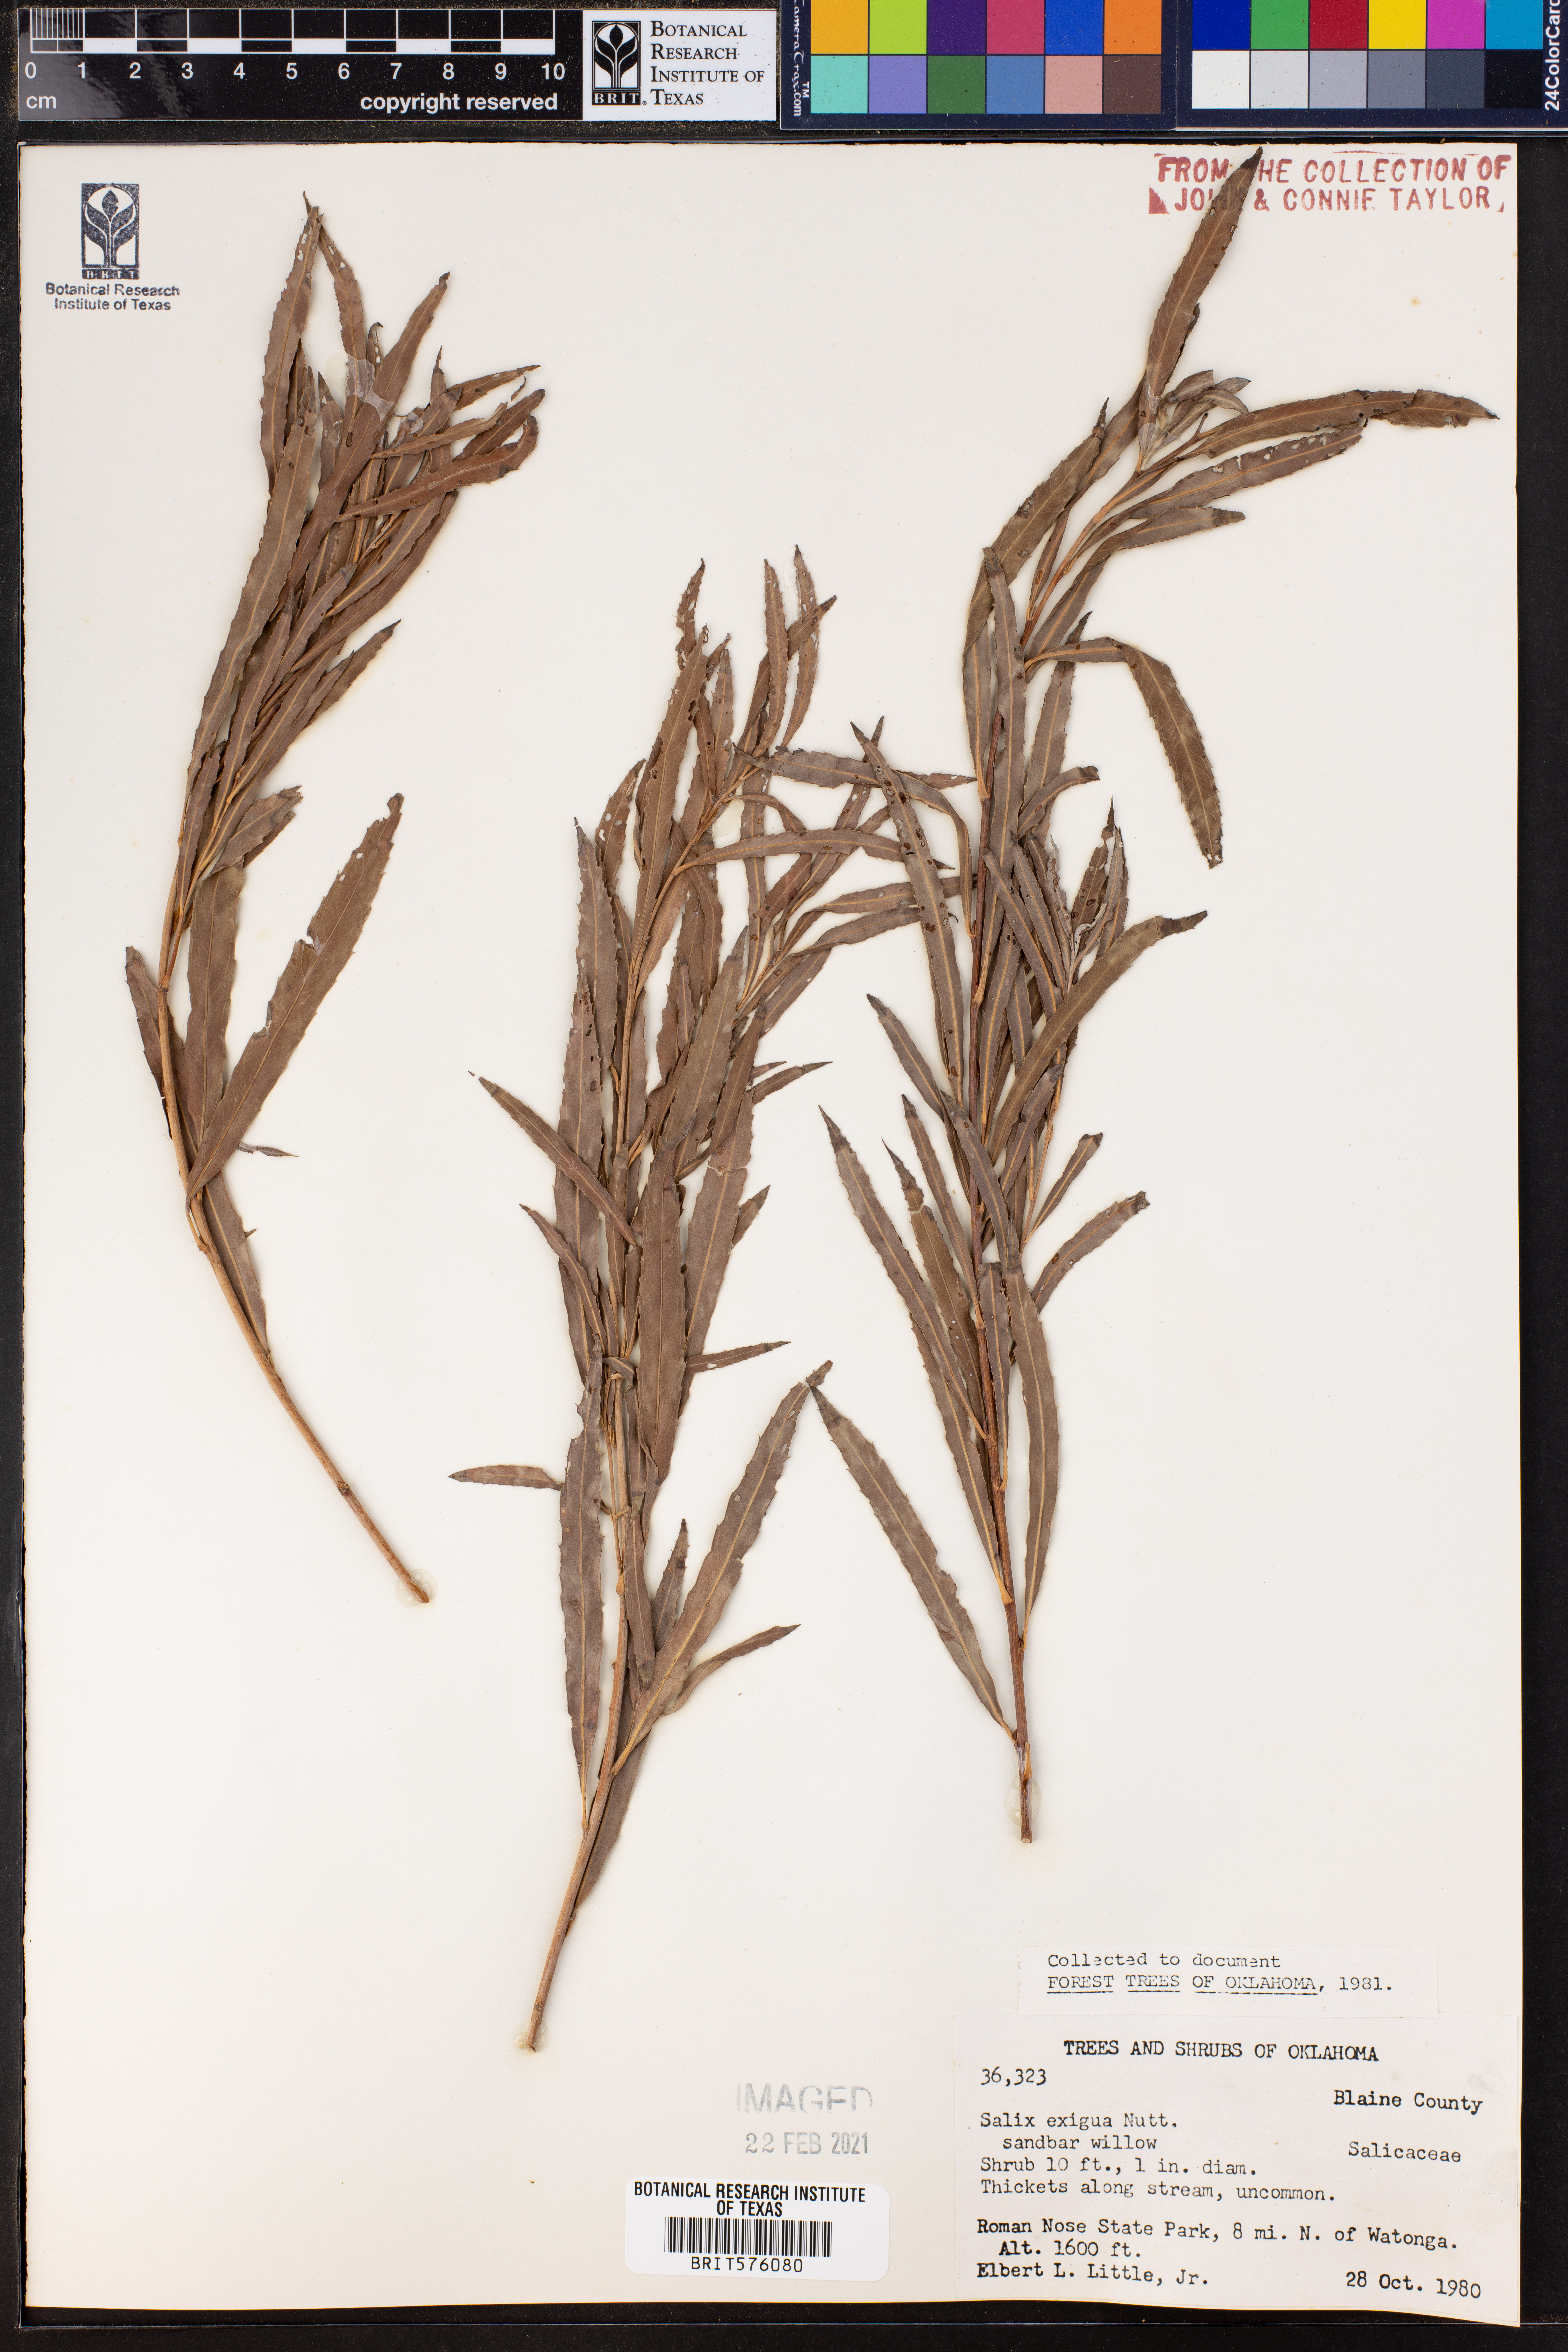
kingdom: Plantae
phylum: Tracheophyta
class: Magnoliopsida
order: Malpighiales
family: Salicaceae
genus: Salix
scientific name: Salix exigua
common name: Coyote willow
